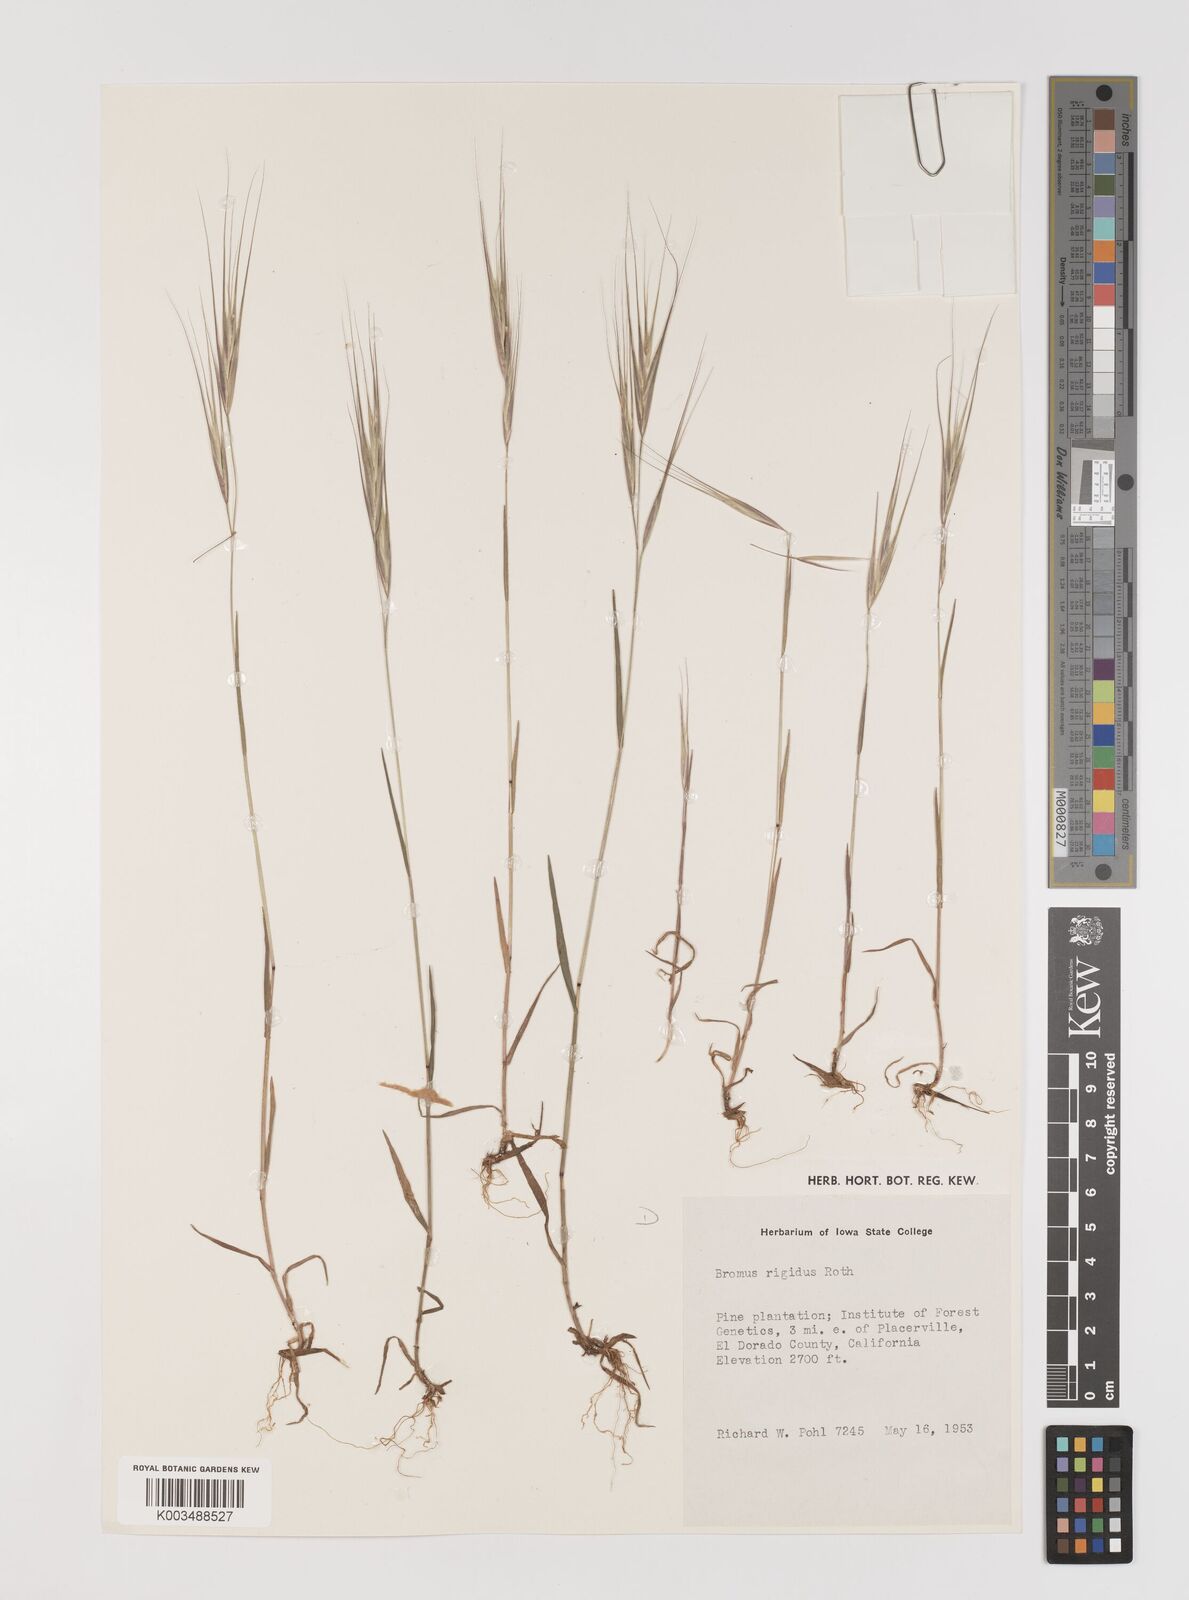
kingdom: Plantae
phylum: Tracheophyta
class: Liliopsida
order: Poales
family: Poaceae
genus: Bromus
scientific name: Bromus diandrus
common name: Ripgut brome
